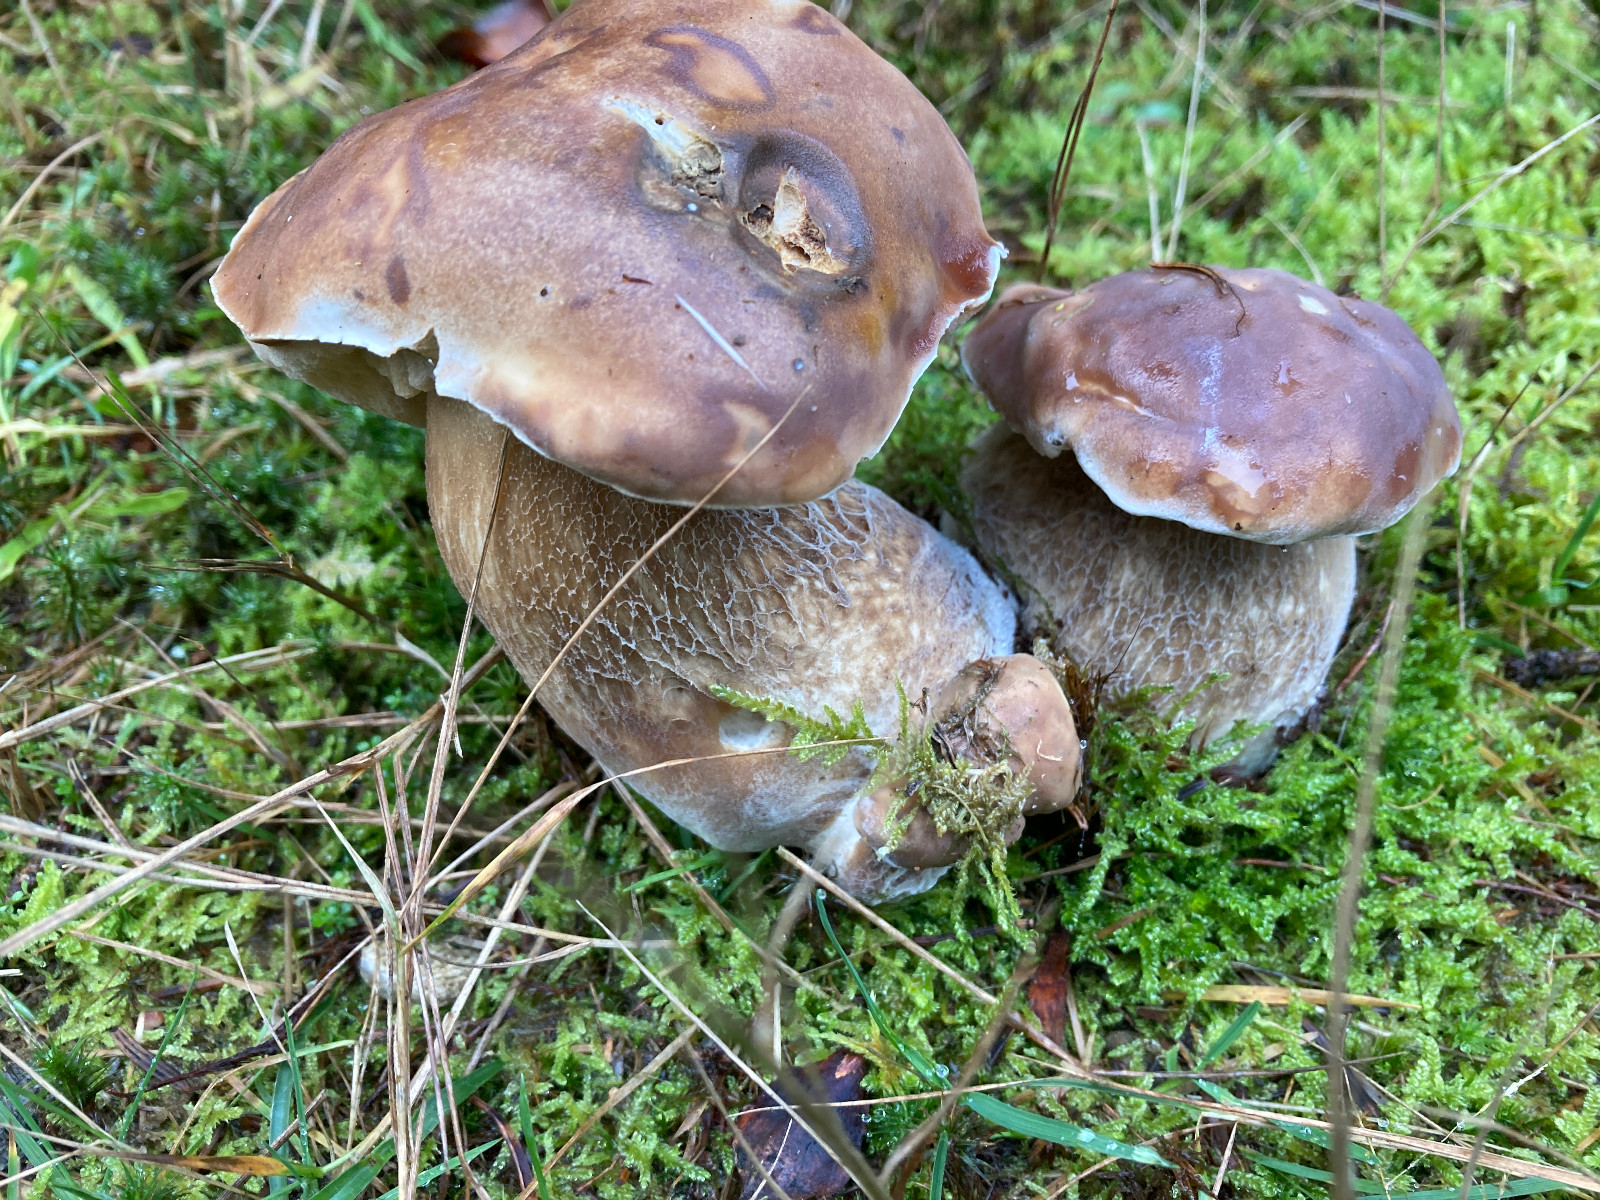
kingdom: Fungi
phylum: Basidiomycota
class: Agaricomycetes
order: Boletales
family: Boletaceae
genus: Boletus
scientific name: Boletus edulis
